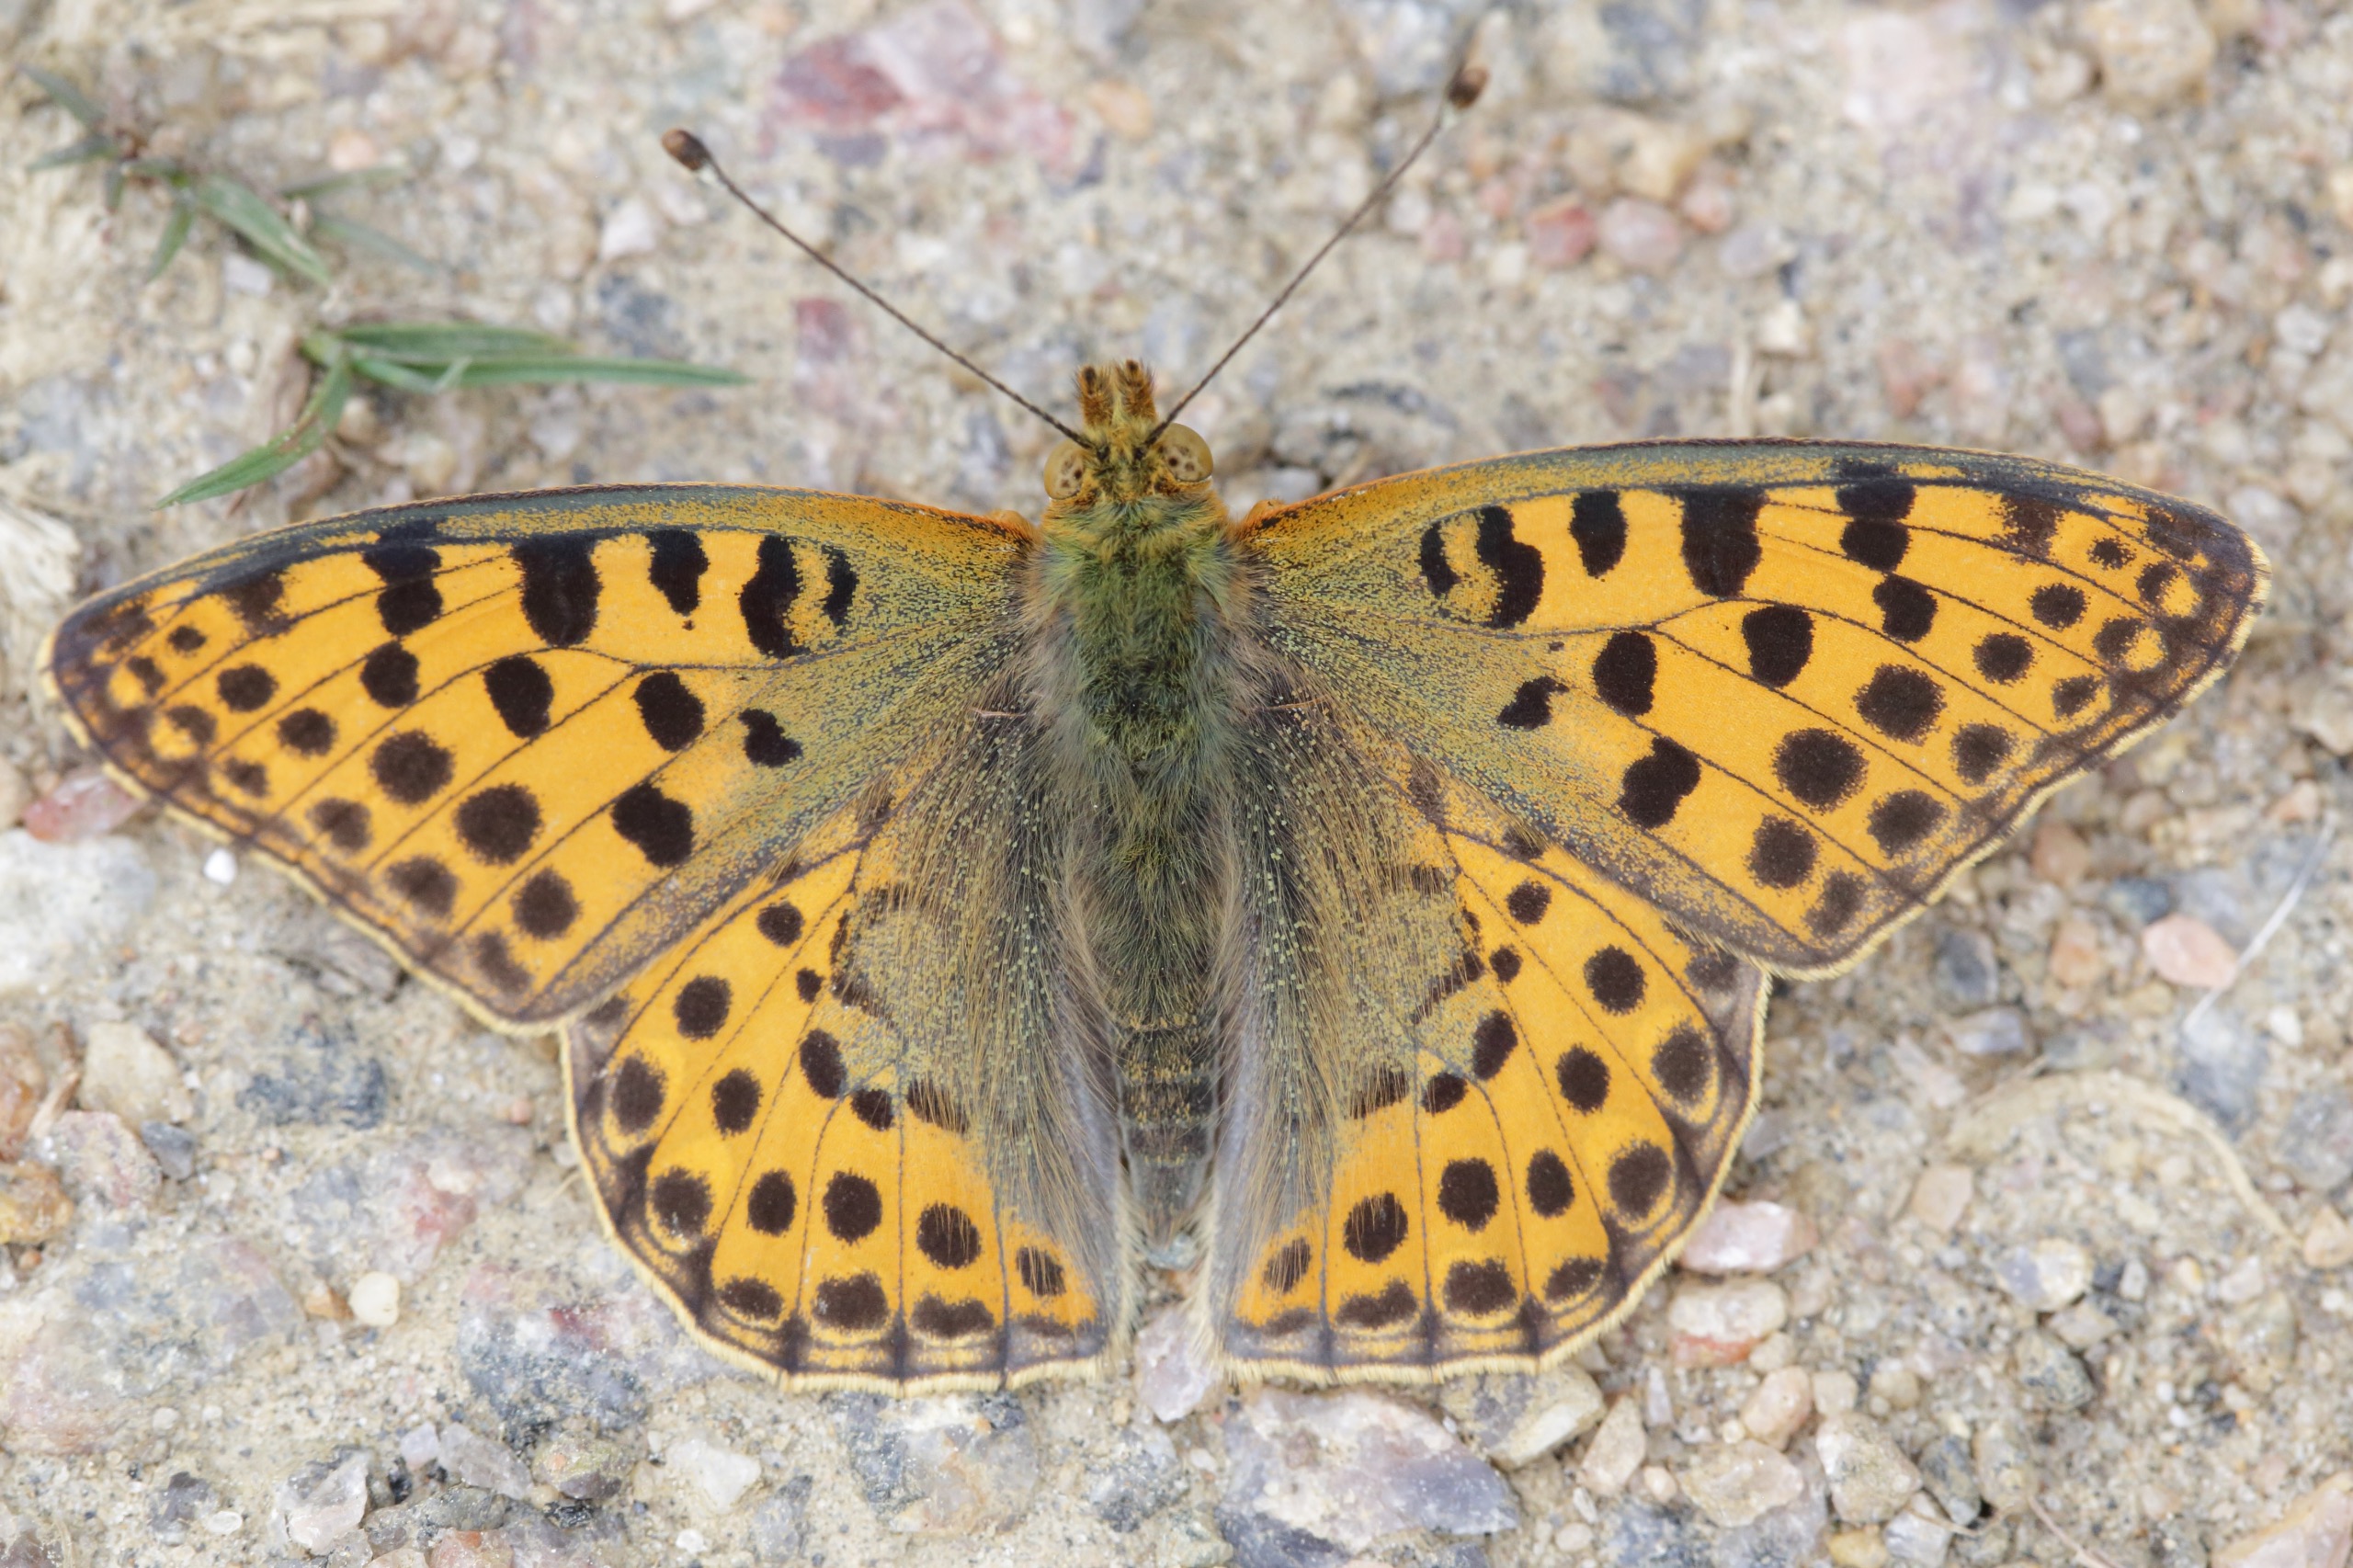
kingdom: Animalia
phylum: Arthropoda
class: Insecta
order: Lepidoptera
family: Nymphalidae
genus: Issoria
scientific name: Issoria lathonia
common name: Storplettet perlemorsommerfugl
